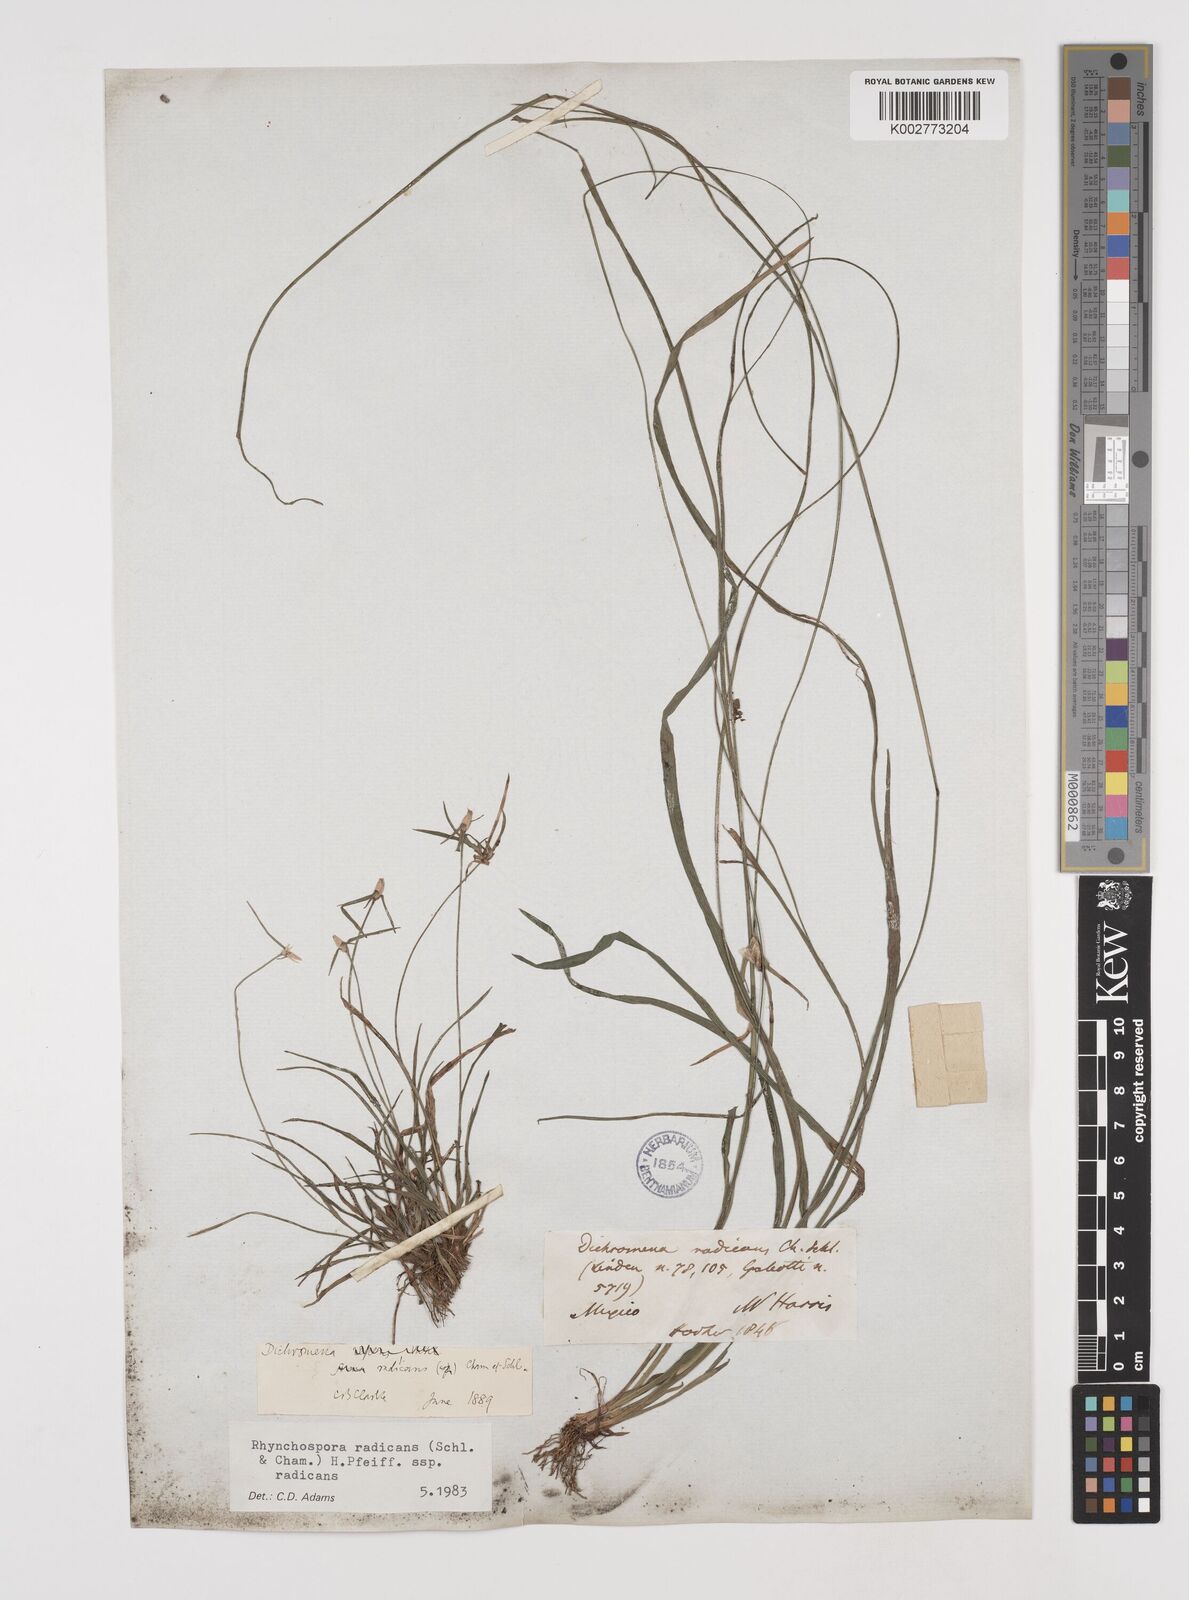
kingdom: Plantae
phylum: Tracheophyta
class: Liliopsida
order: Poales
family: Cyperaceae
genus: Rhynchospora
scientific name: Rhynchospora radicans
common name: Tropical whitetop
